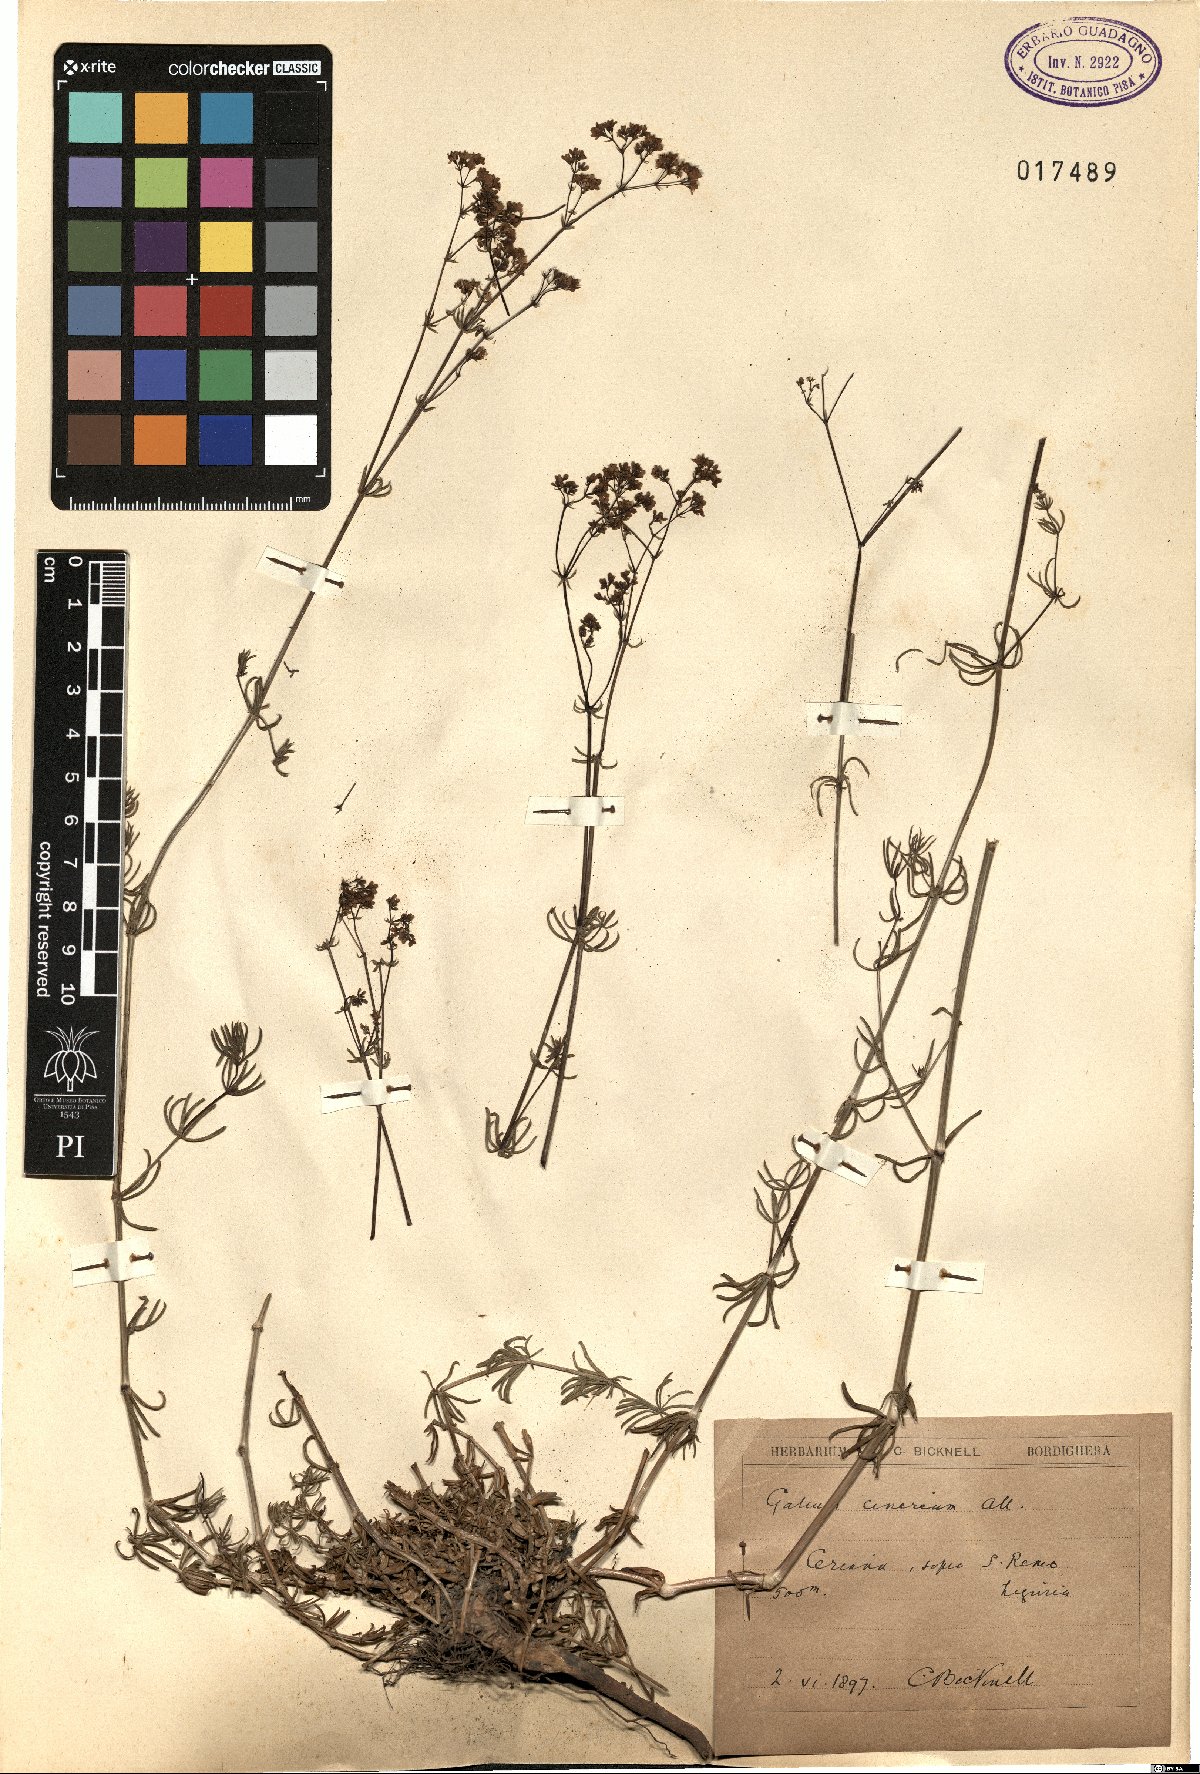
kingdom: Plantae
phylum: Tracheophyta
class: Magnoliopsida
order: Gentianales
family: Rubiaceae
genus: Galium
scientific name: Galium cinereum
